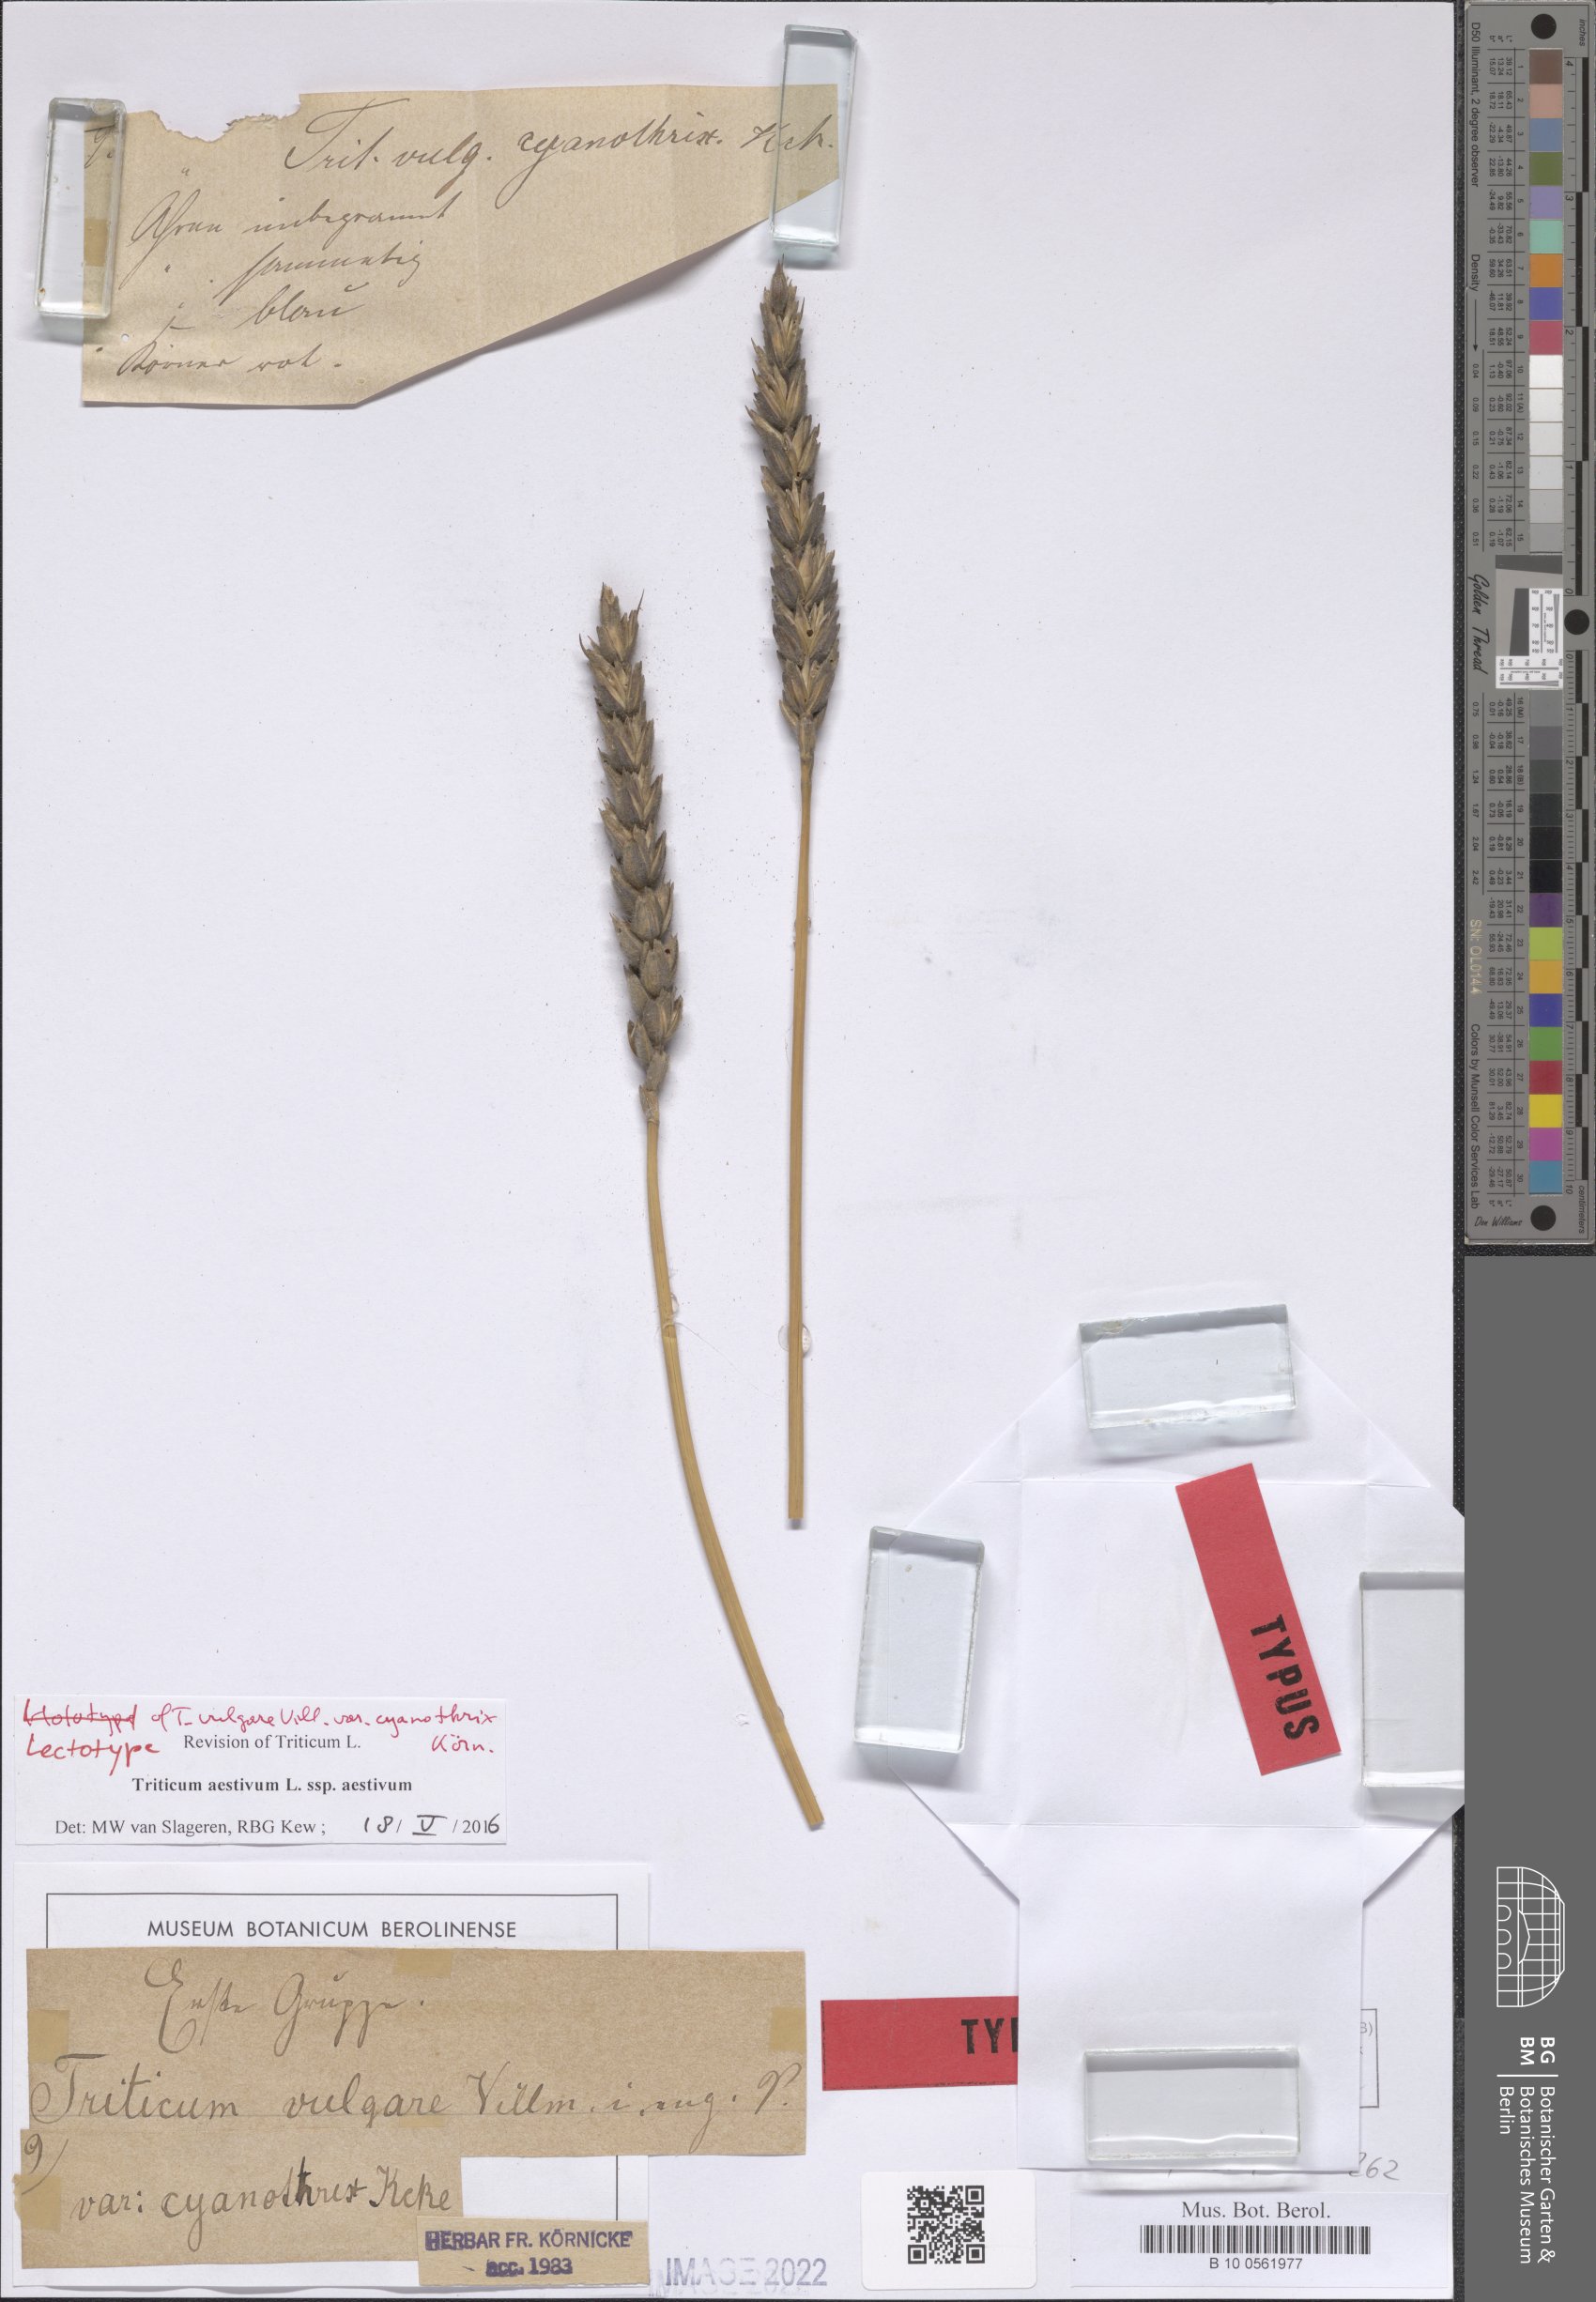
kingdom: Plantae
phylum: Tracheophyta
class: Liliopsida
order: Poales
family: Poaceae
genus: Triticum
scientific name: Triticum aestivum
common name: Common wheat
